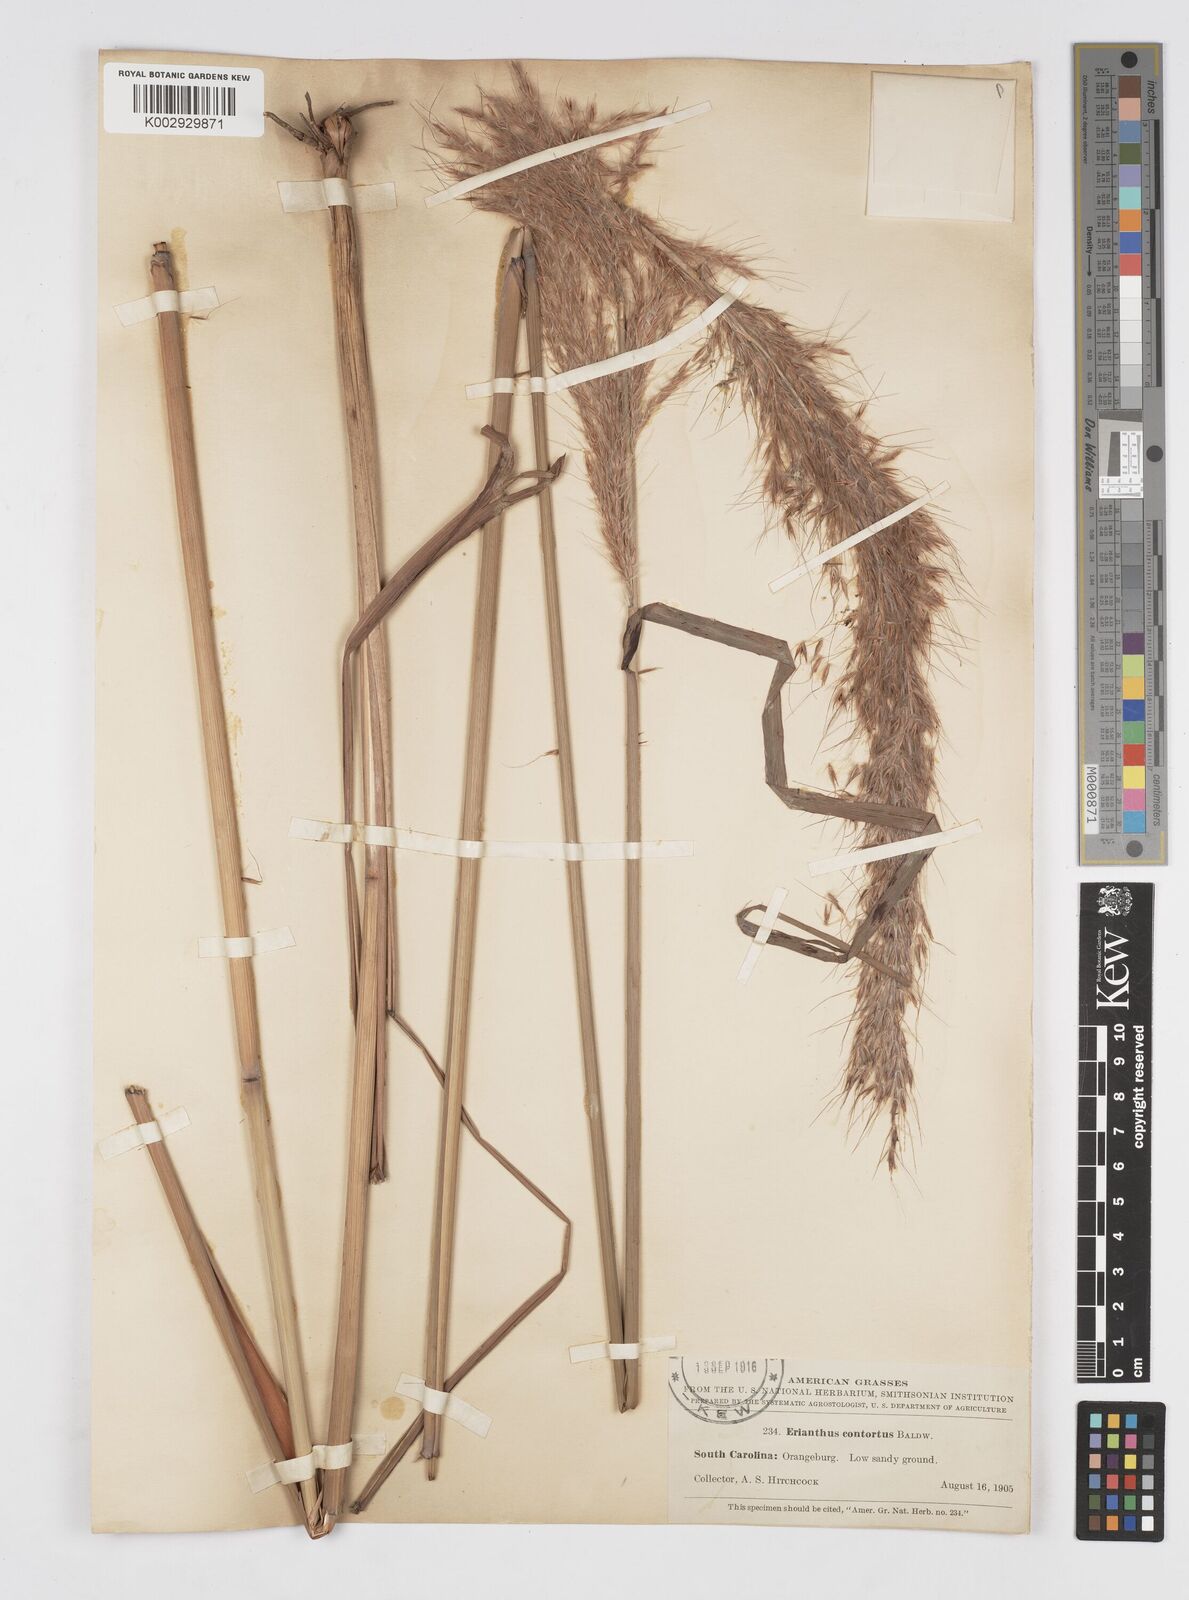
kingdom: Plantae
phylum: Tracheophyta
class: Liliopsida
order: Poales
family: Poaceae
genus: Erianthus
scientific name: Erianthus contortus
